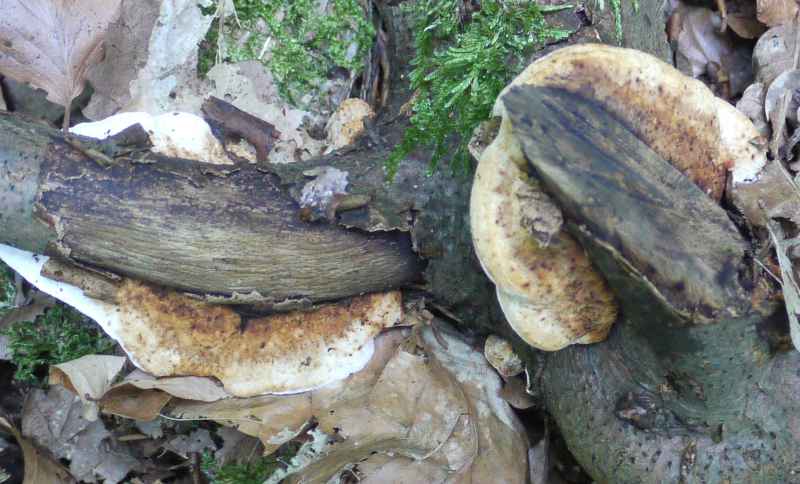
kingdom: Fungi
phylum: Basidiomycota
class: Agaricomycetes
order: Polyporales
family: Incrustoporiaceae
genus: Skeletocutis
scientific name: Skeletocutis nemoralis
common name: stor krystalporesvamp
